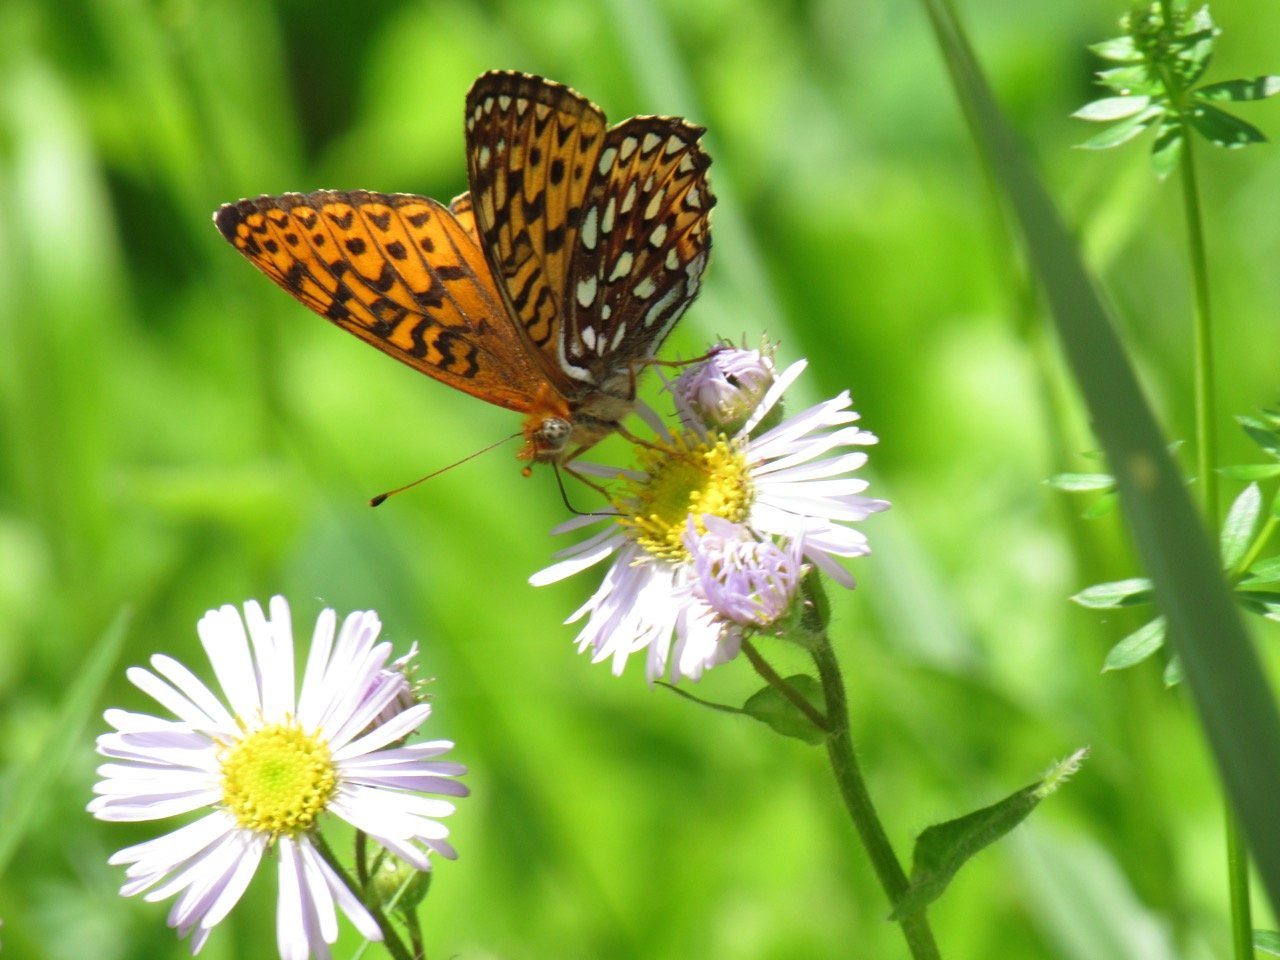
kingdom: Animalia
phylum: Arthropoda
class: Insecta
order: Lepidoptera
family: Nymphalidae
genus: Speyeria
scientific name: Speyeria atlantis
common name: Atlantis Fritillary
